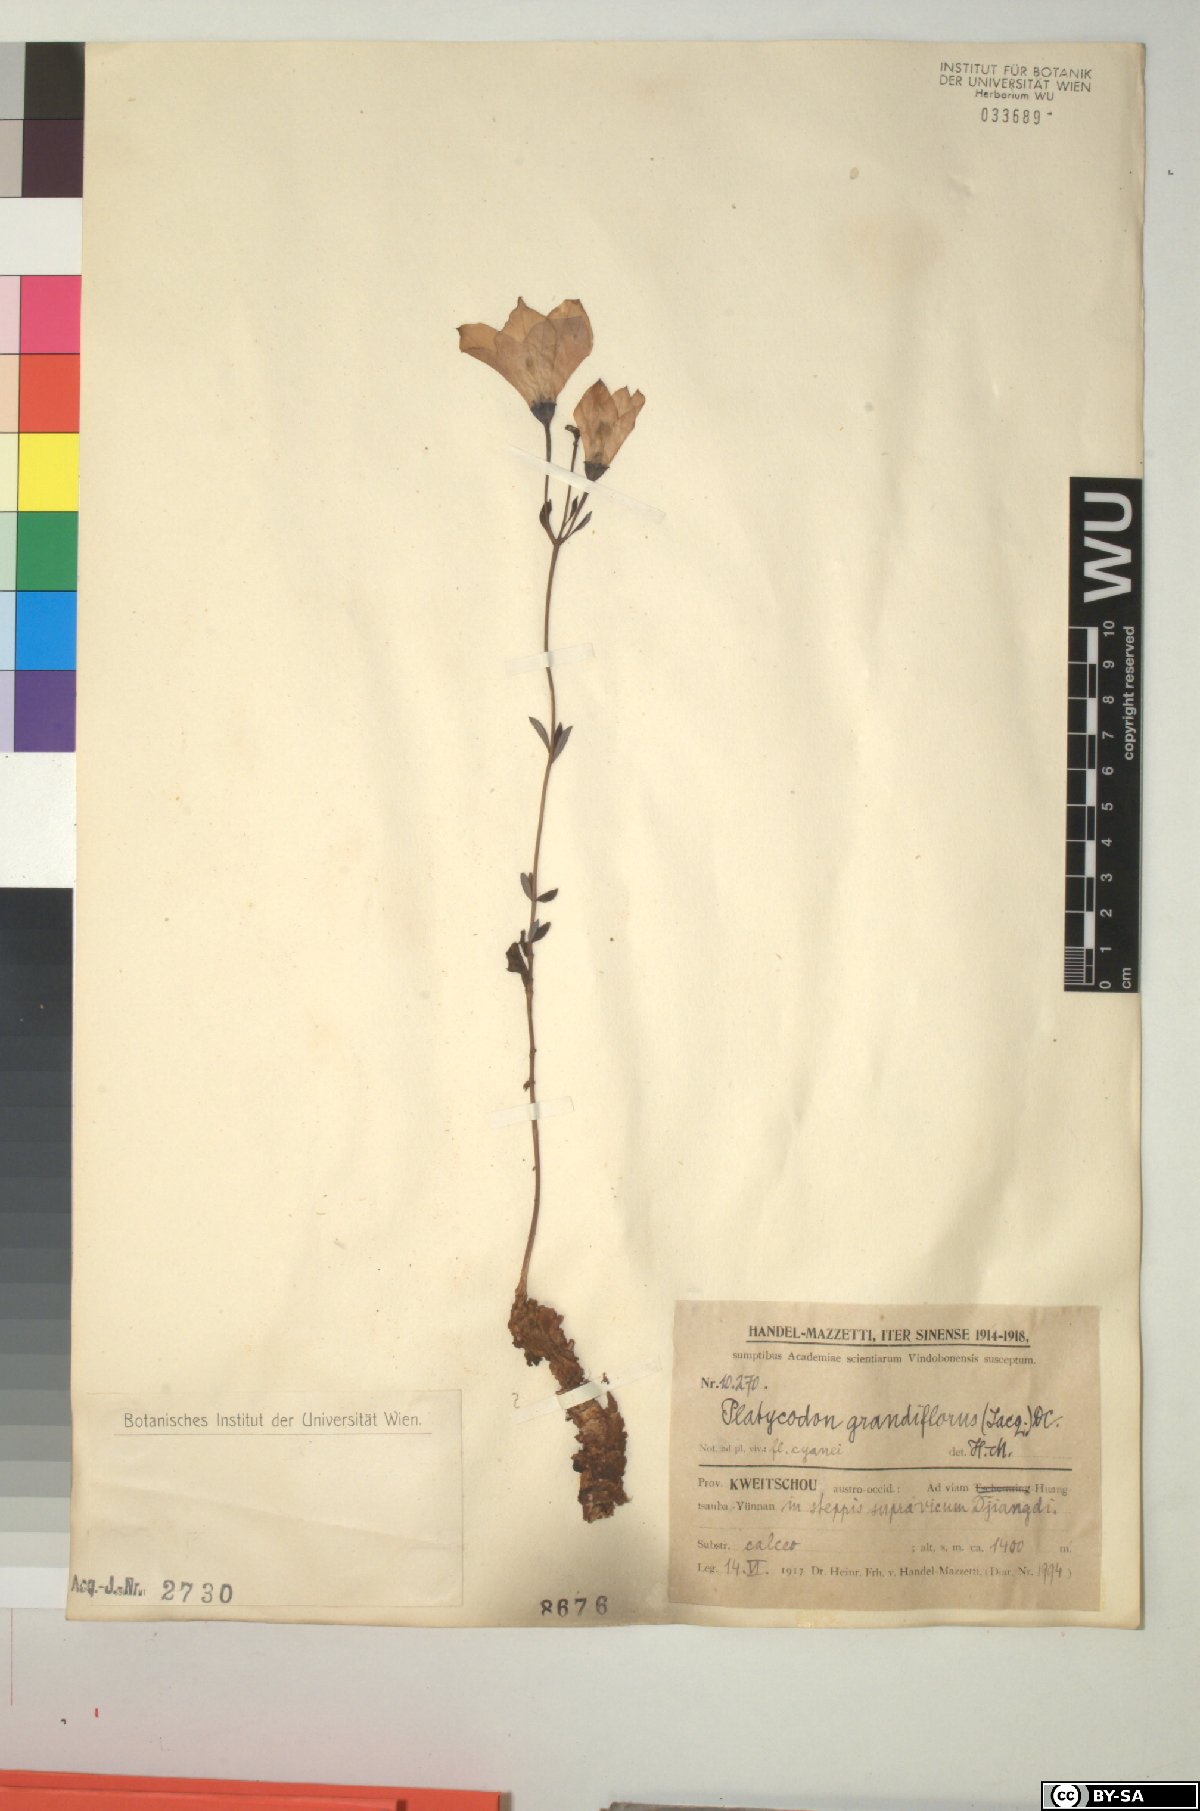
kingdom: Plantae
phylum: Tracheophyta
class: Magnoliopsida
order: Asterales
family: Campanulaceae
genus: Platycodon
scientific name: Platycodon grandiflorus
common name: Balloon-flower
